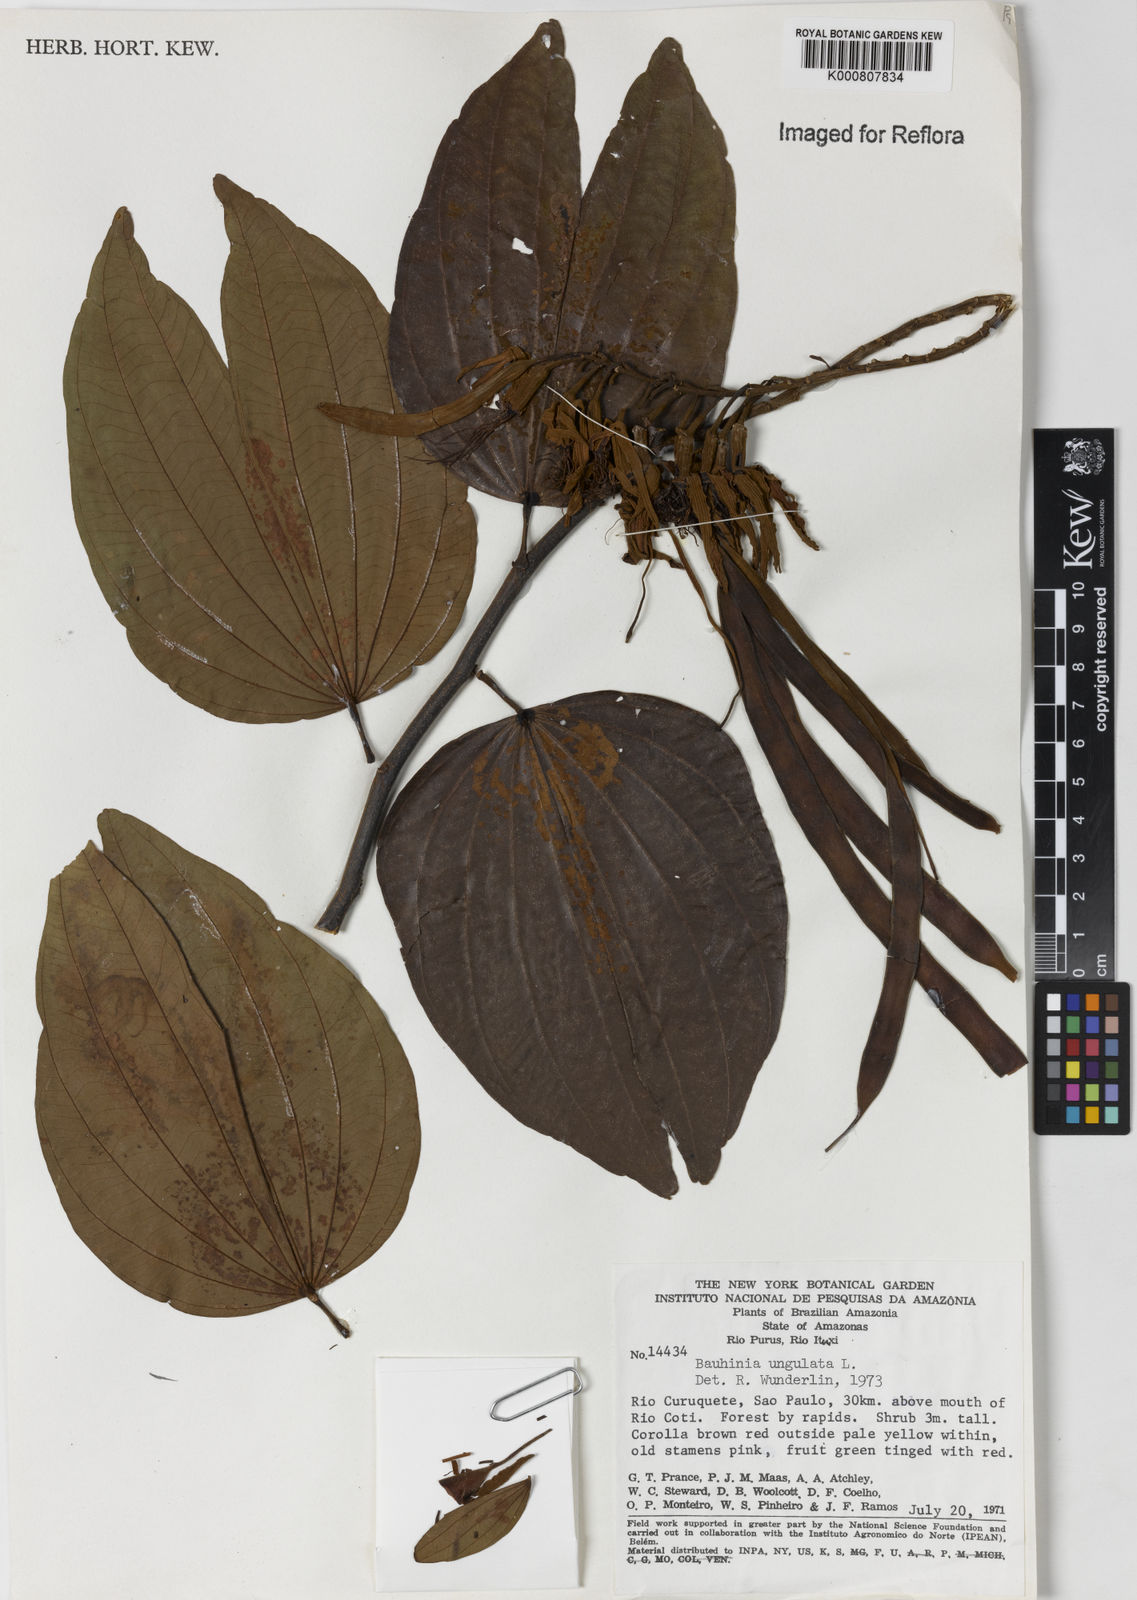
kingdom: Plantae
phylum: Tracheophyta
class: Magnoliopsida
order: Fabales
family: Fabaceae
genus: Bauhinia
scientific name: Bauhinia ungulata
